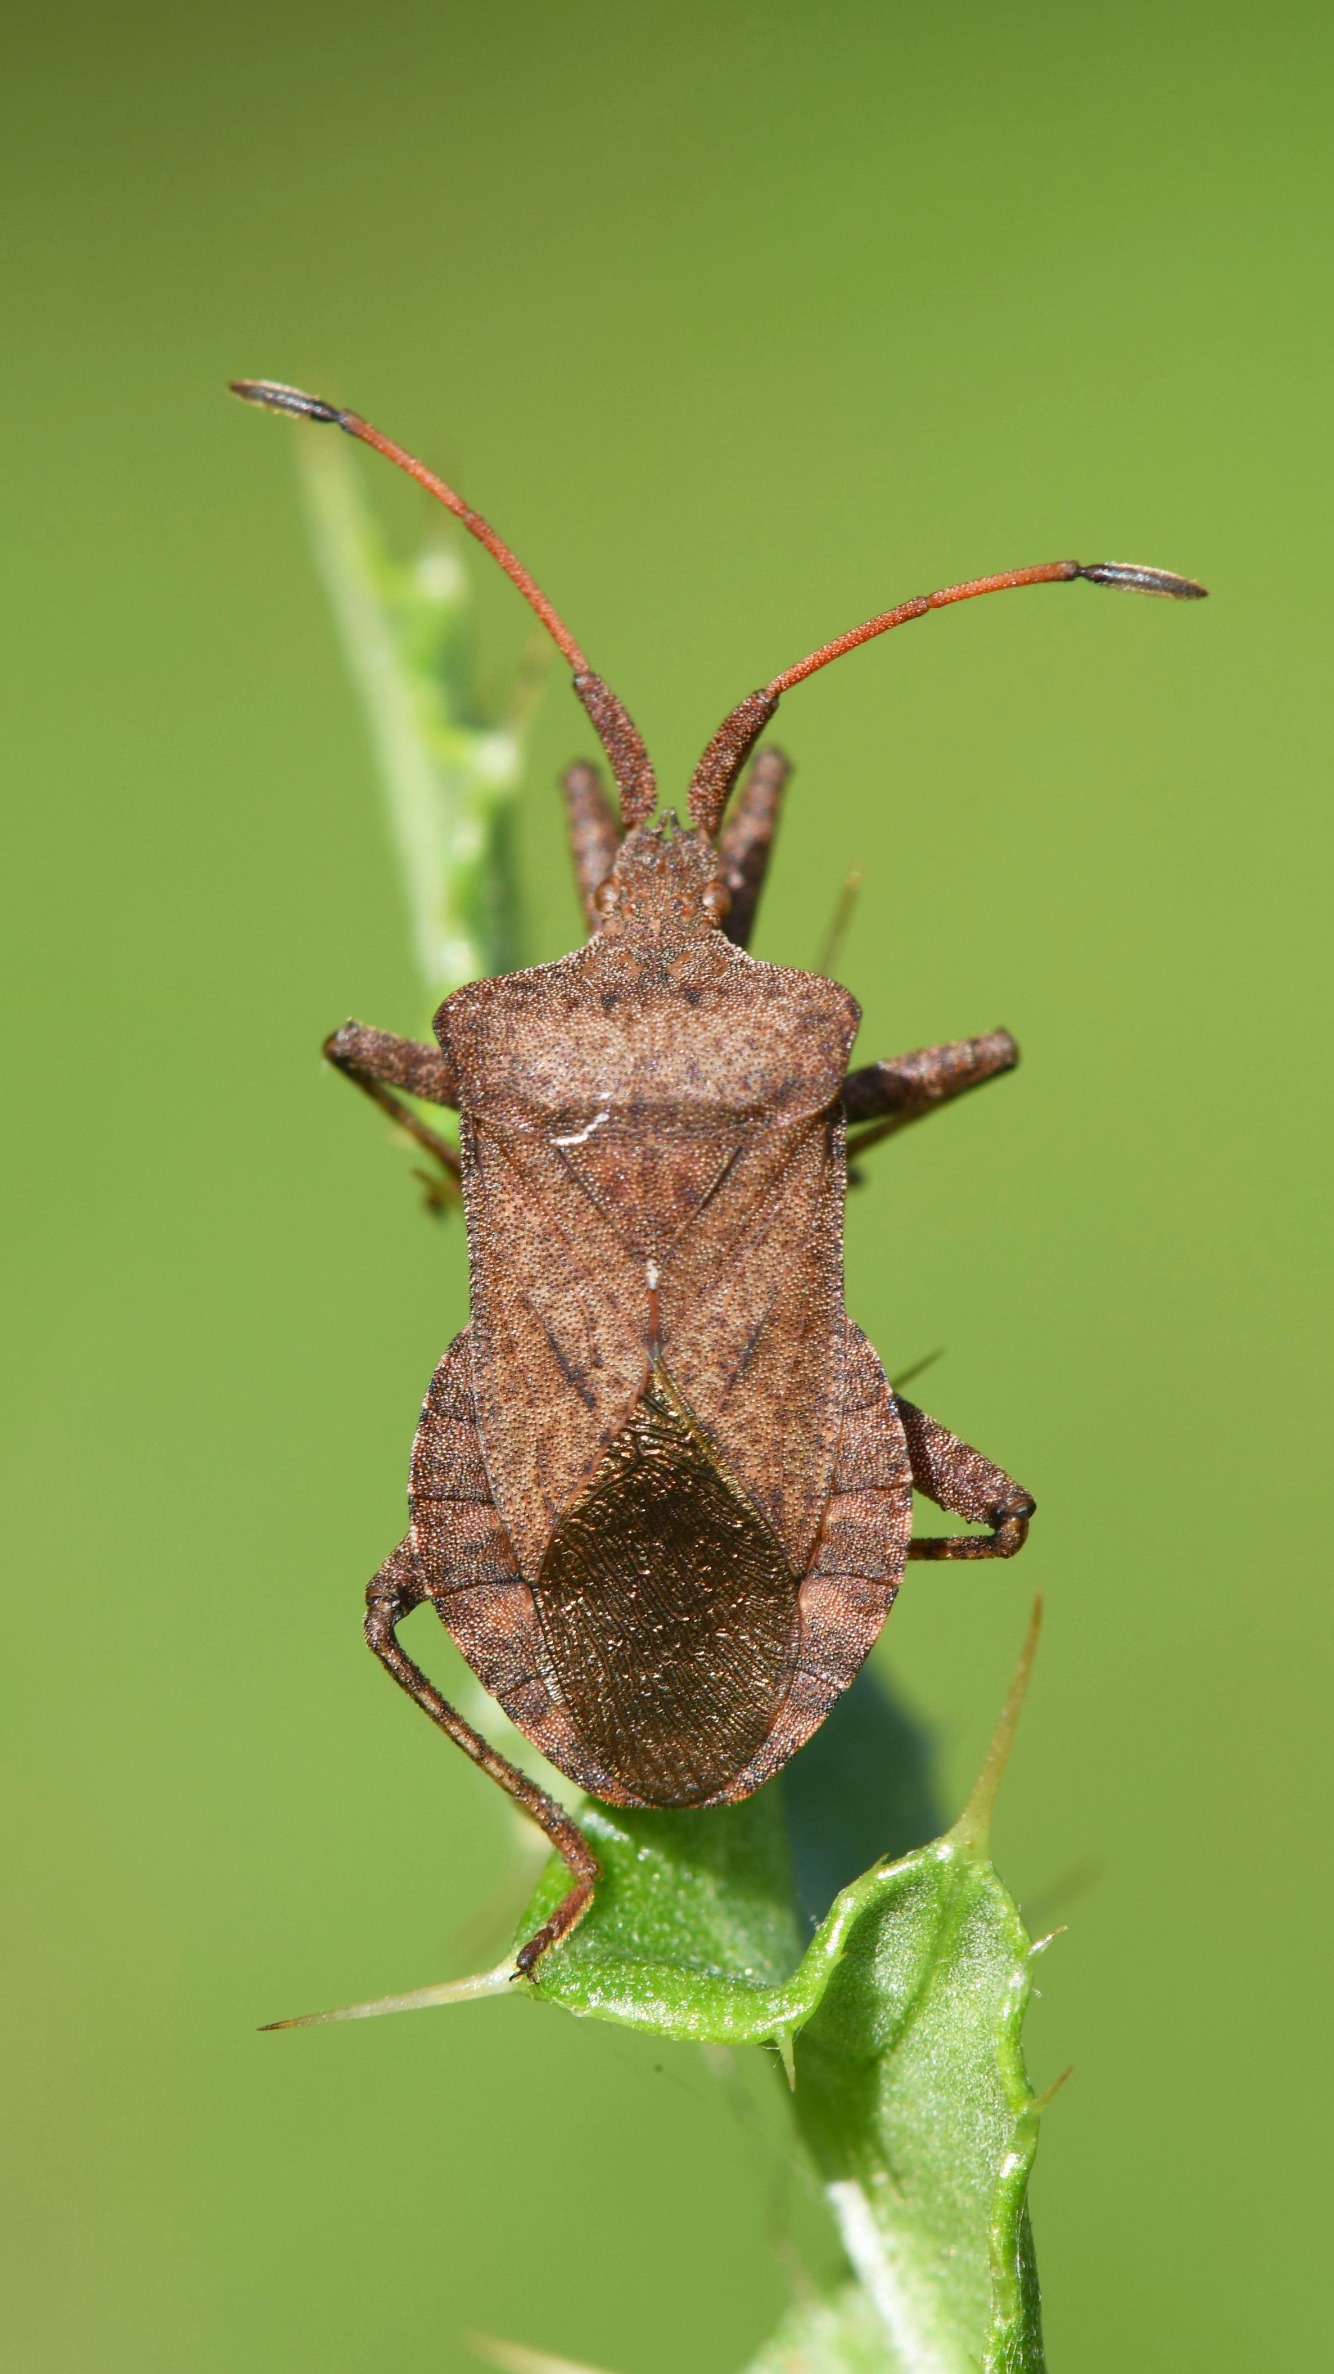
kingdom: Animalia
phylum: Arthropoda
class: Insecta
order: Hemiptera
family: Coreidae
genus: Coreus
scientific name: Coreus marginatus
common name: Skræppetæge
